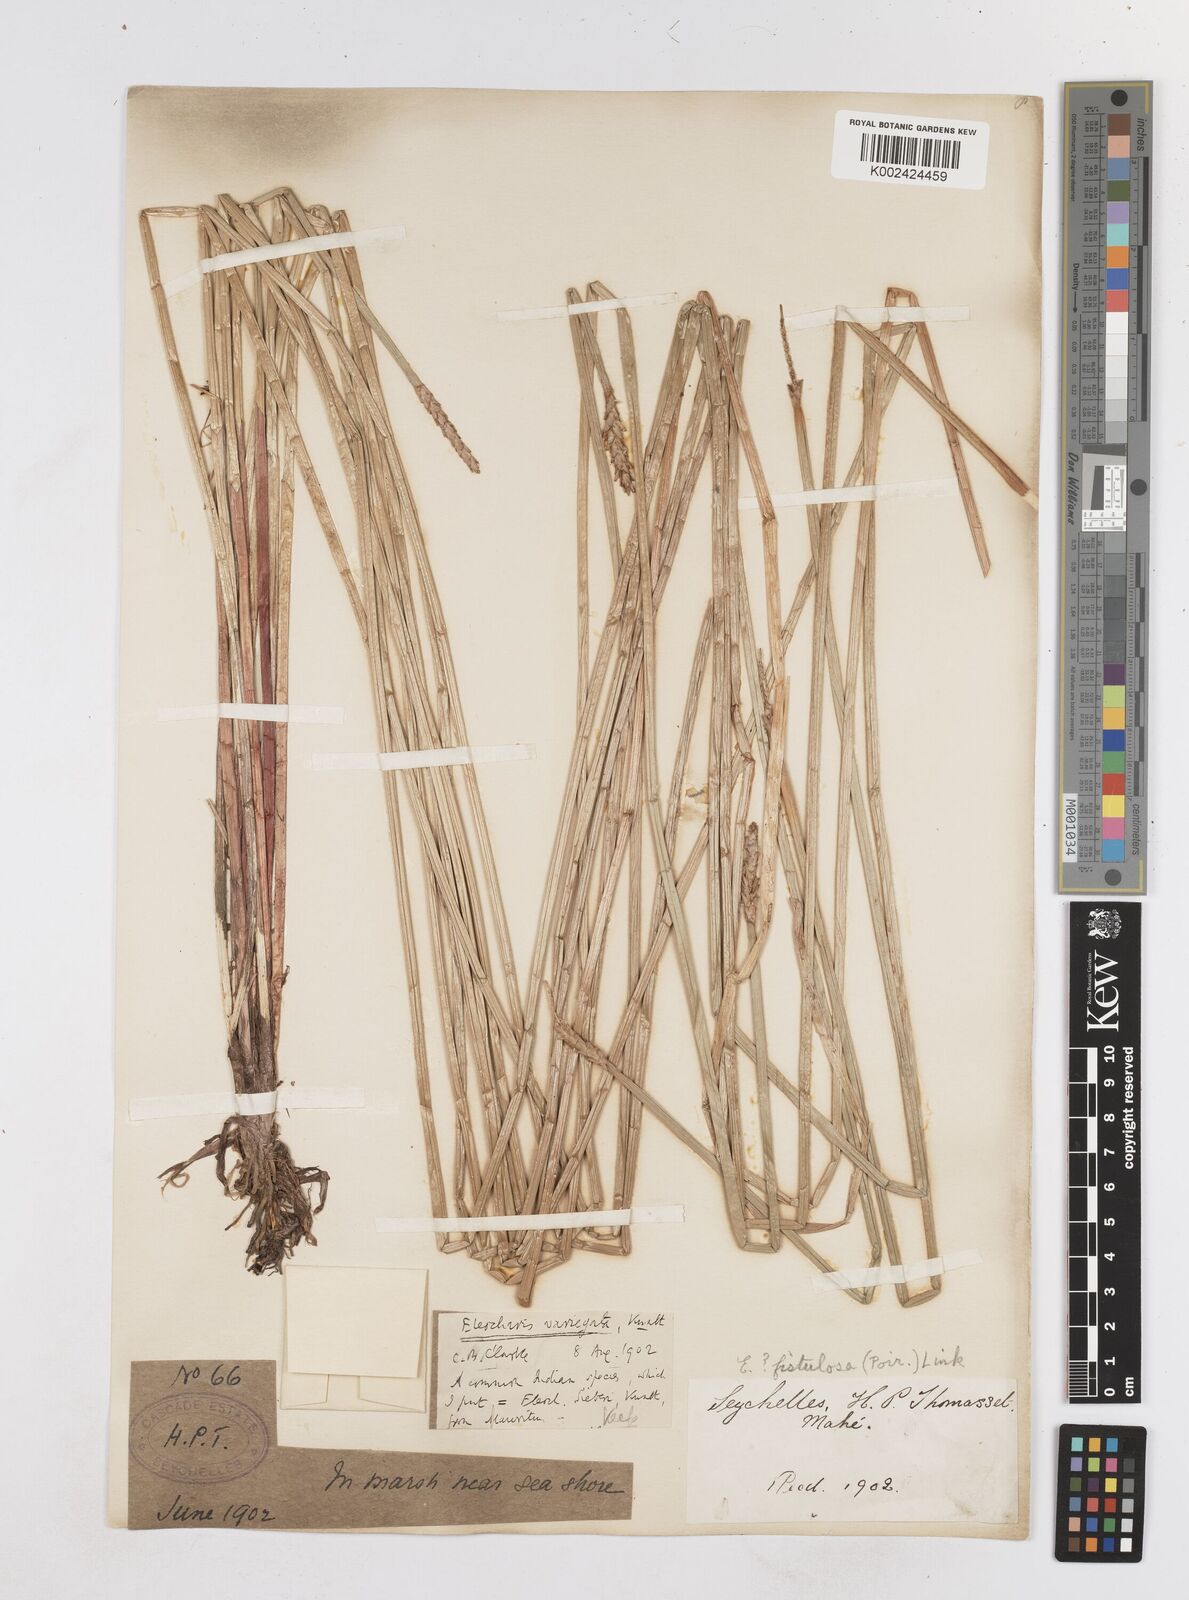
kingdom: Plantae
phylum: Tracheophyta
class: Liliopsida
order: Poales
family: Cyperaceae
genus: Eleocharis
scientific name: Eleocharis variegata
